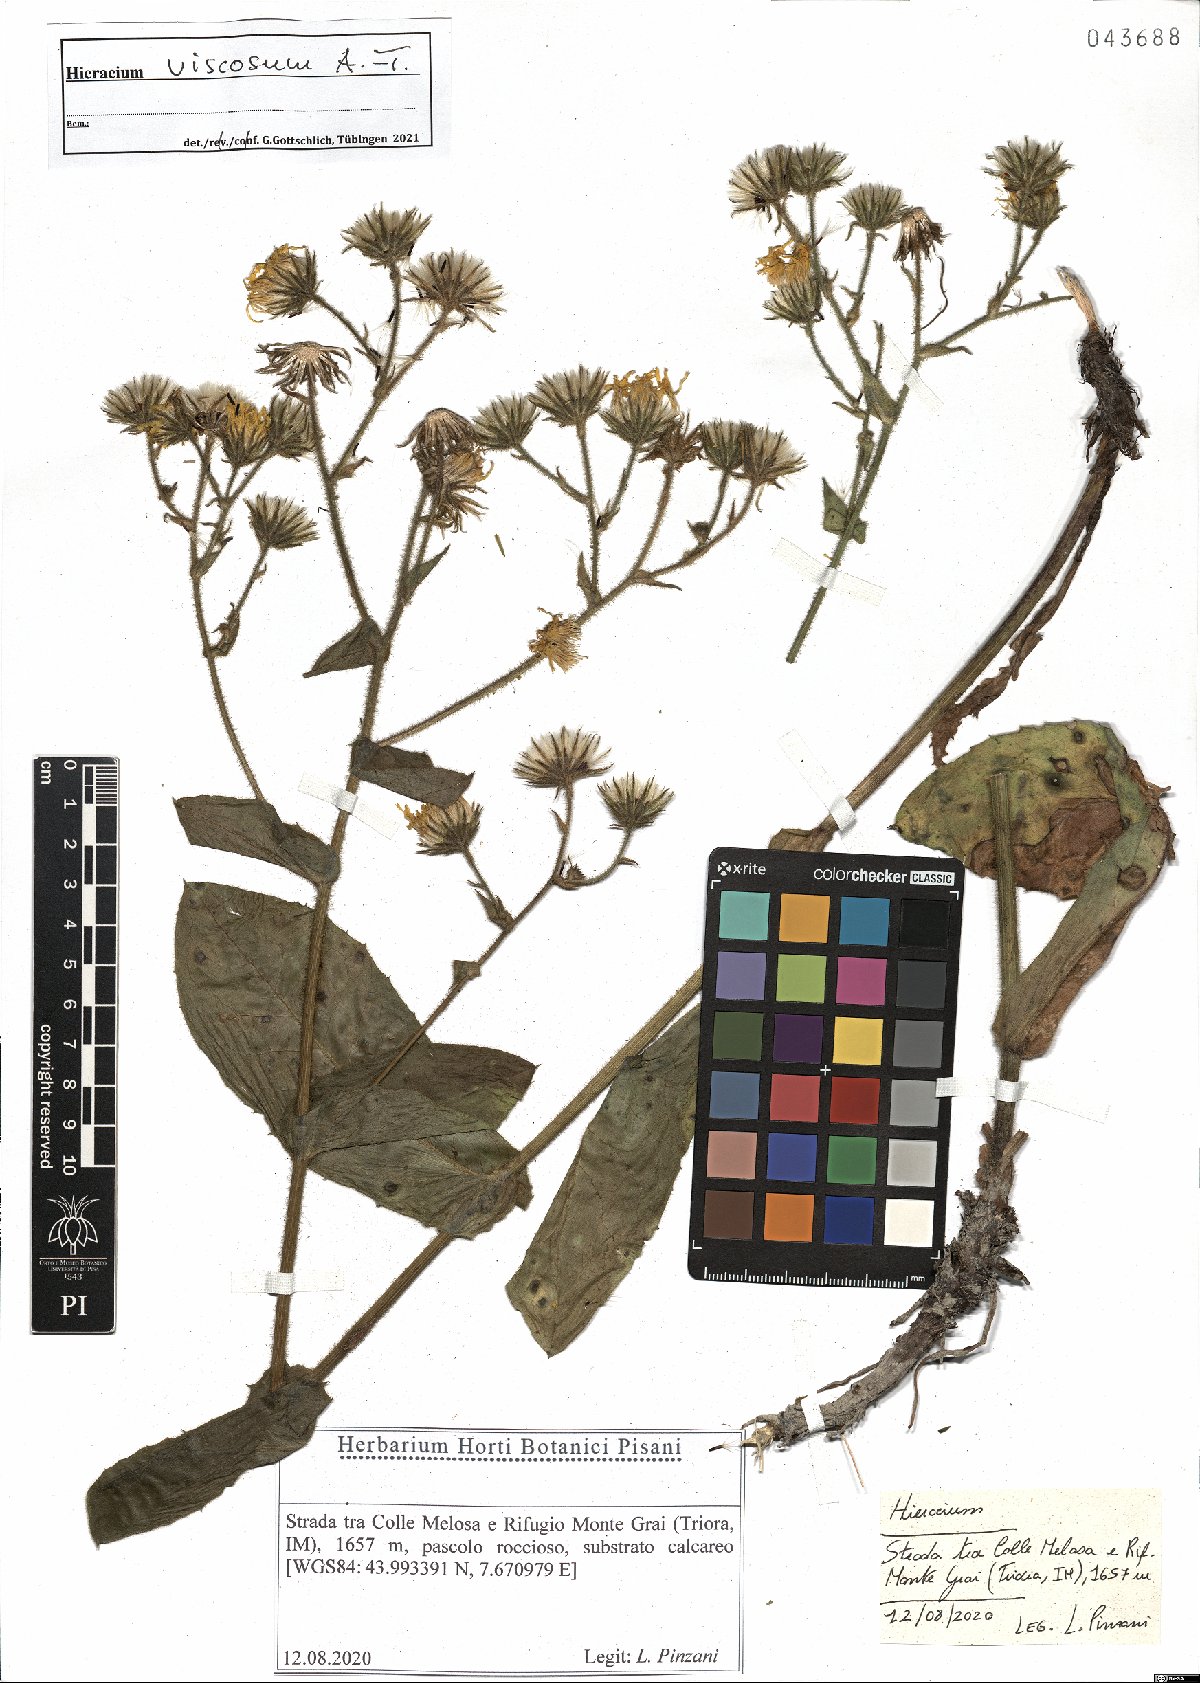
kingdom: Plantae
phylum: Tracheophyta
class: Magnoliopsida
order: Asterales
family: Asteraceae
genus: Hieracium
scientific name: Hieracium viscosum
